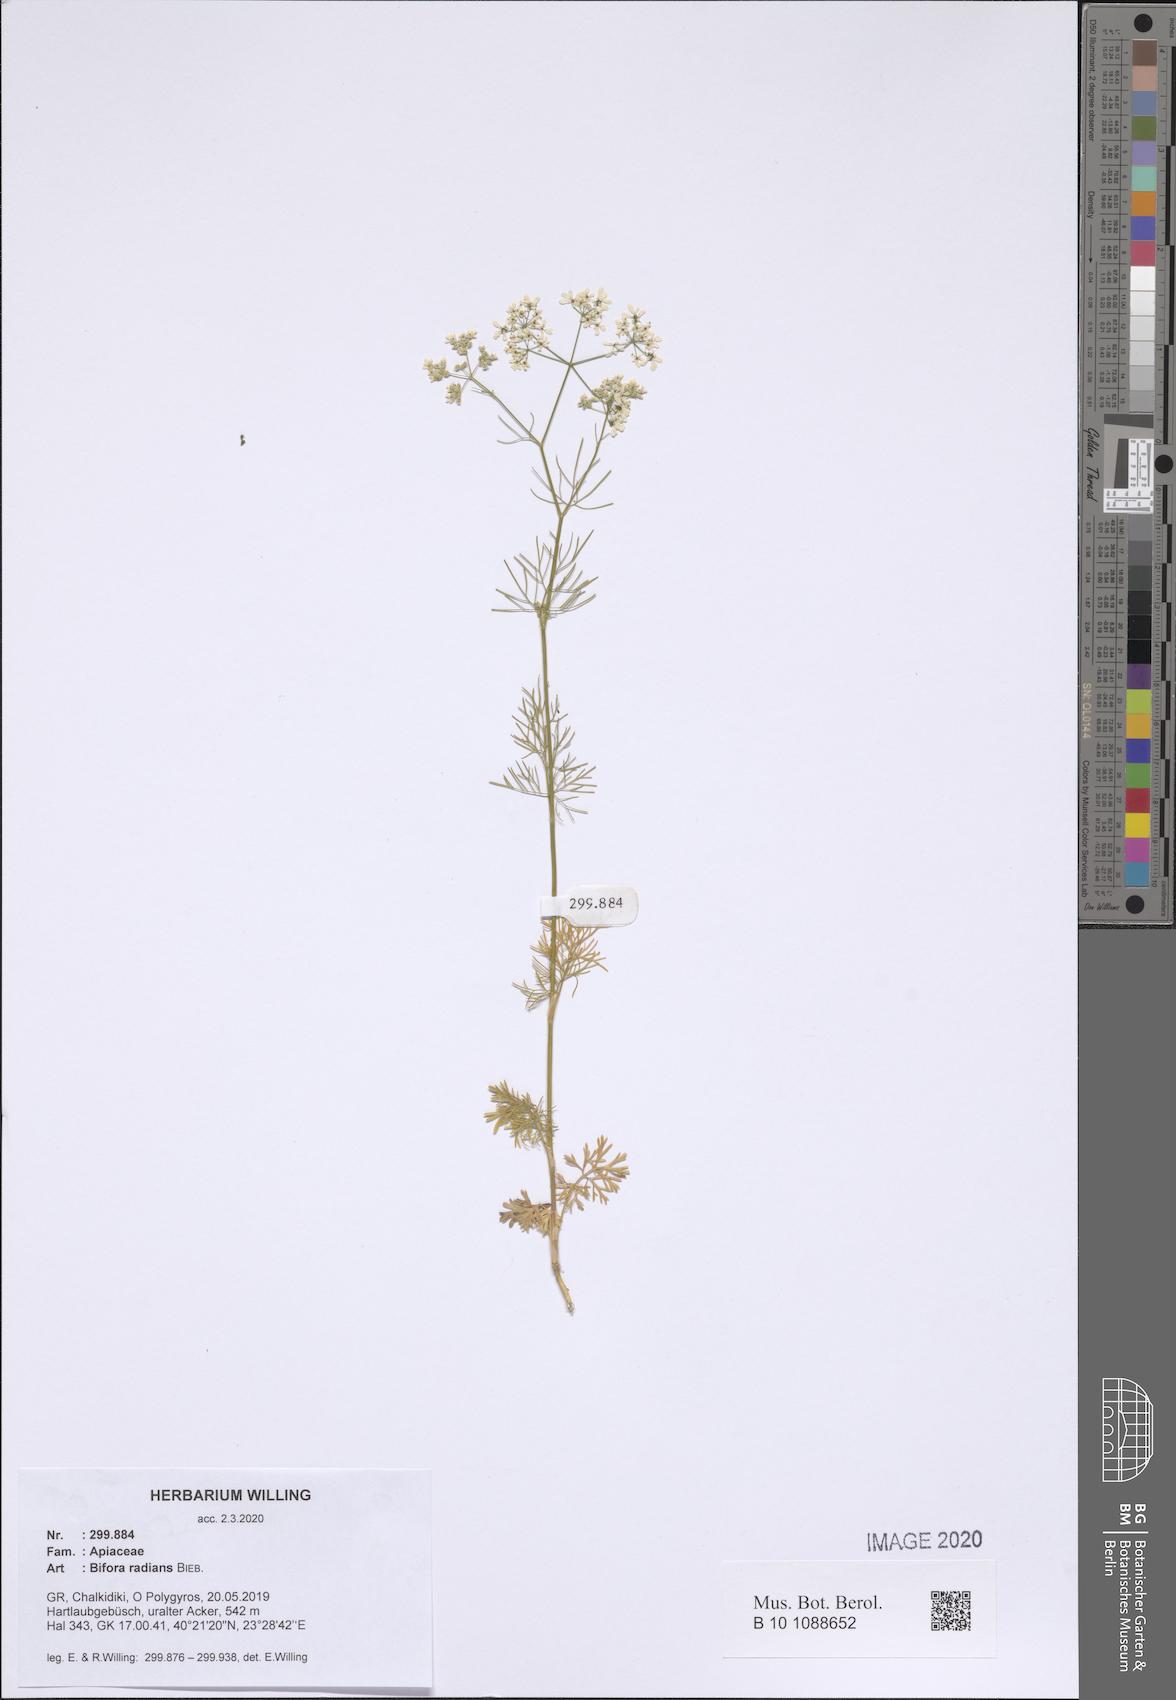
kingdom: Plantae
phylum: Tracheophyta
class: Magnoliopsida
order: Apiales
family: Apiaceae
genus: Bifora
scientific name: Bifora radians
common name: Wild bishop
